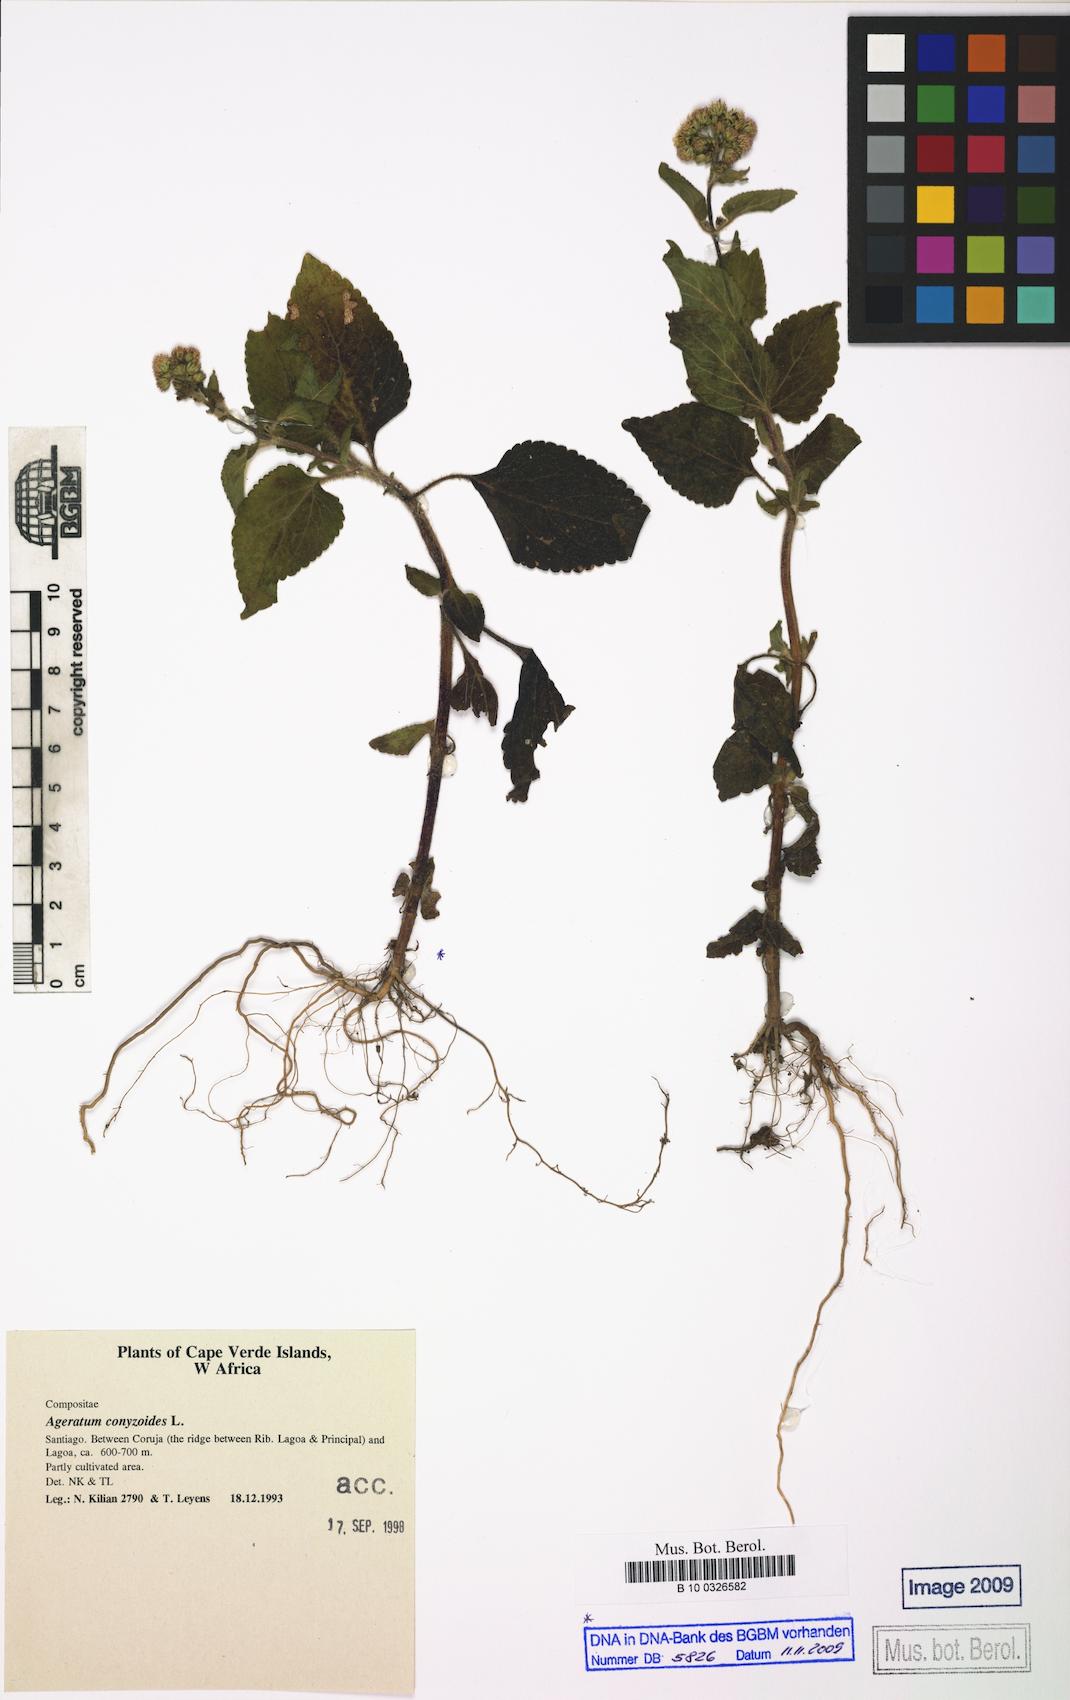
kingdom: Plantae
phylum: Tracheophyta
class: Magnoliopsida
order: Asterales
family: Asteraceae
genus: Ageratum
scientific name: Ageratum conyzoides
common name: Tropical whiteweed
